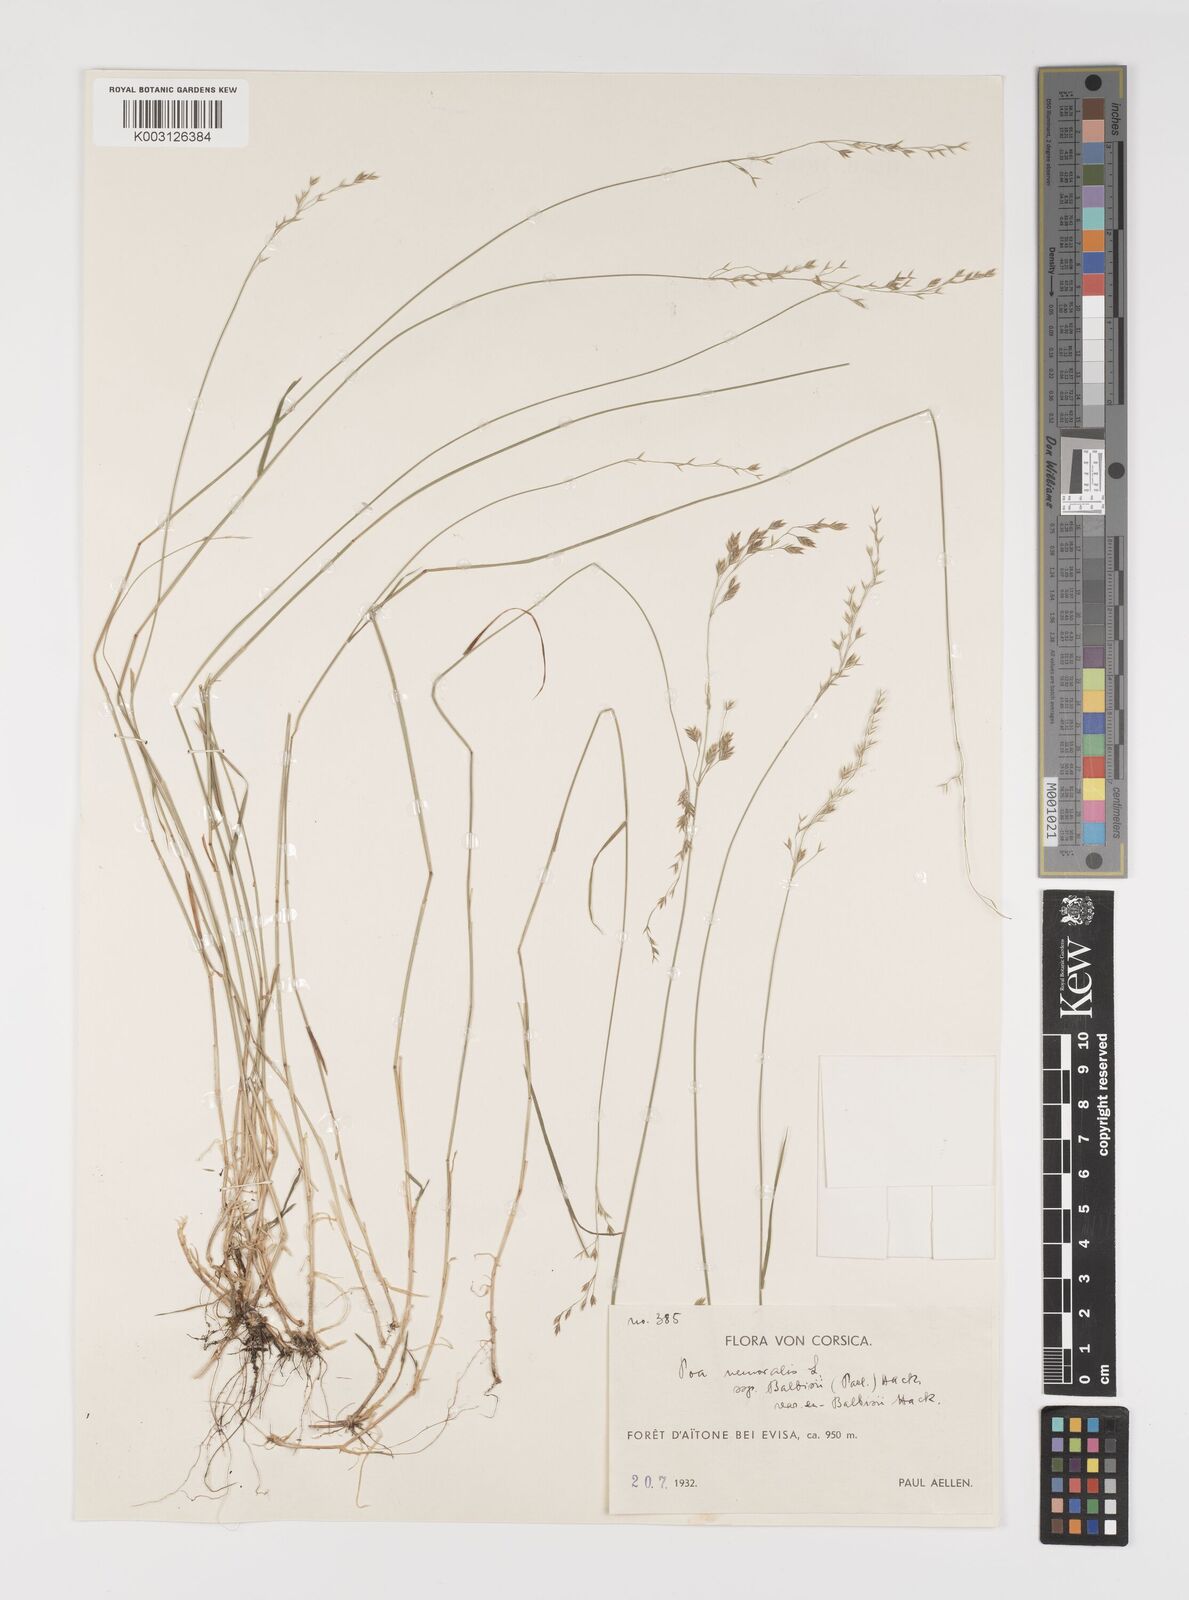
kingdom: Plantae
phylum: Tracheophyta
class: Liliopsida
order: Poales
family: Poaceae
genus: Poa
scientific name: Poa glauca
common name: Glaucous bluegrass
